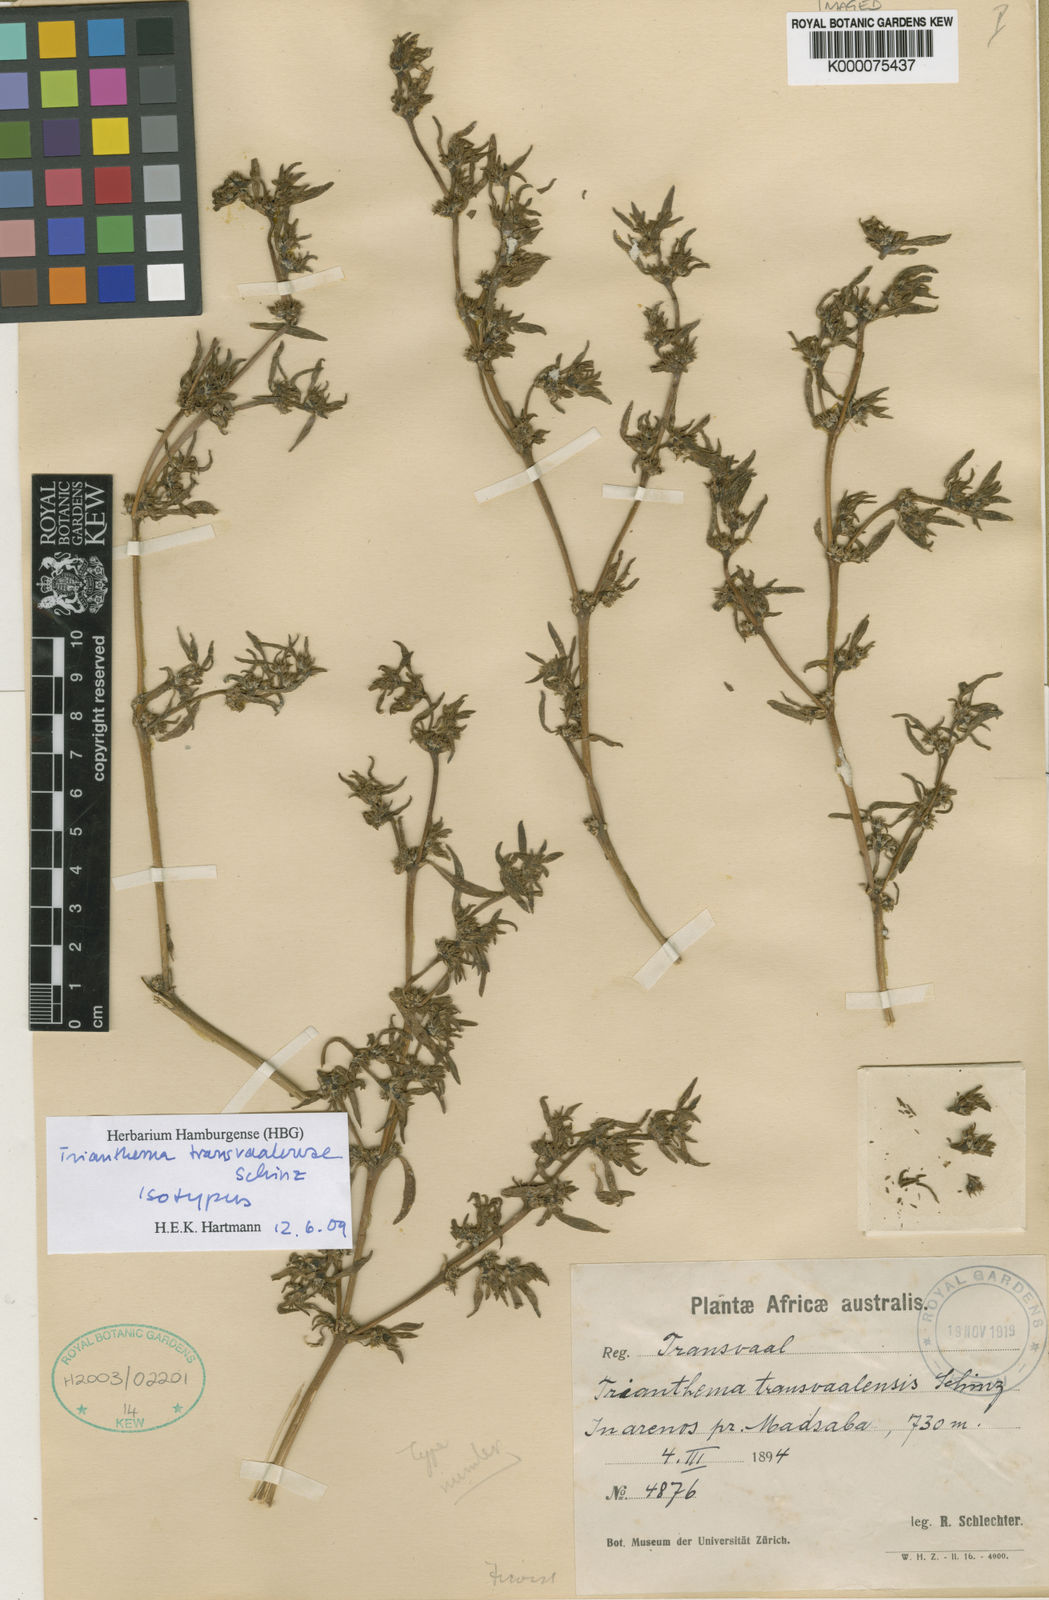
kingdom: Plantae
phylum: Tracheophyta
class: Magnoliopsida
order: Caryophyllales
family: Aizoaceae
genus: Trianthema
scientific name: Trianthema
